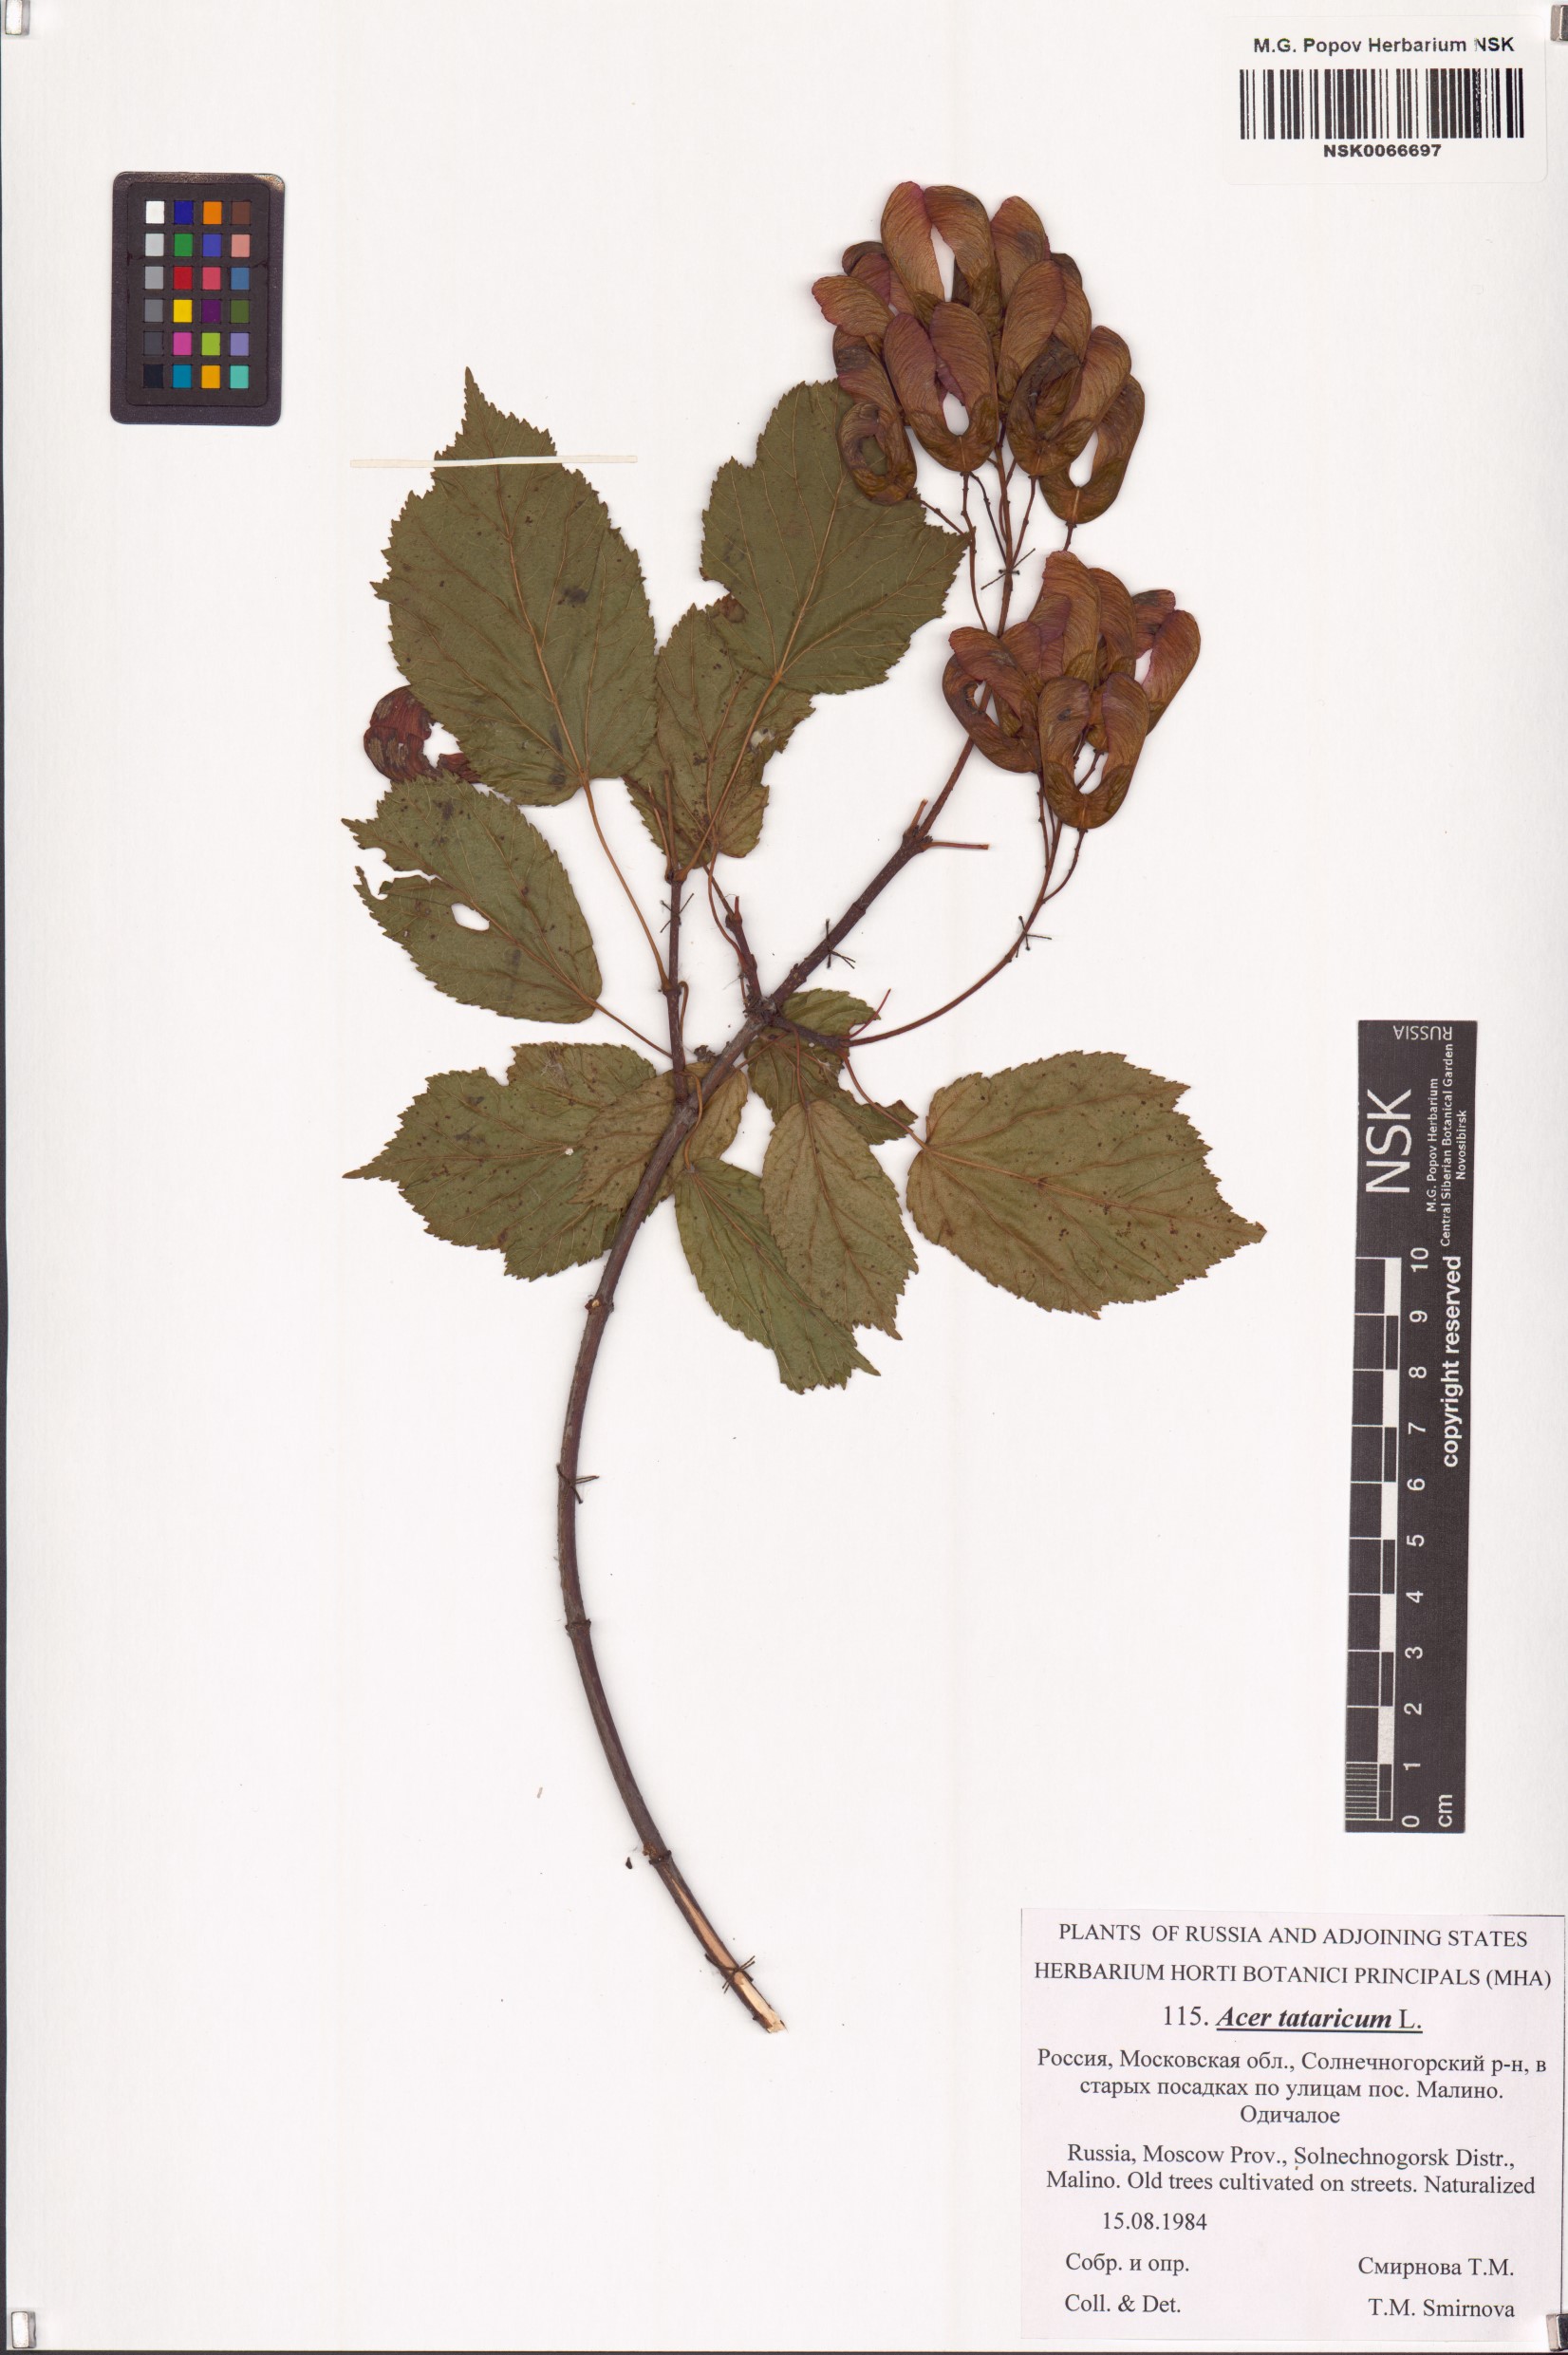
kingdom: Plantae
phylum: Tracheophyta
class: Magnoliopsida
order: Sapindales
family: Sapindaceae
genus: Acer
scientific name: Acer tataricum
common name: Tartar maple
